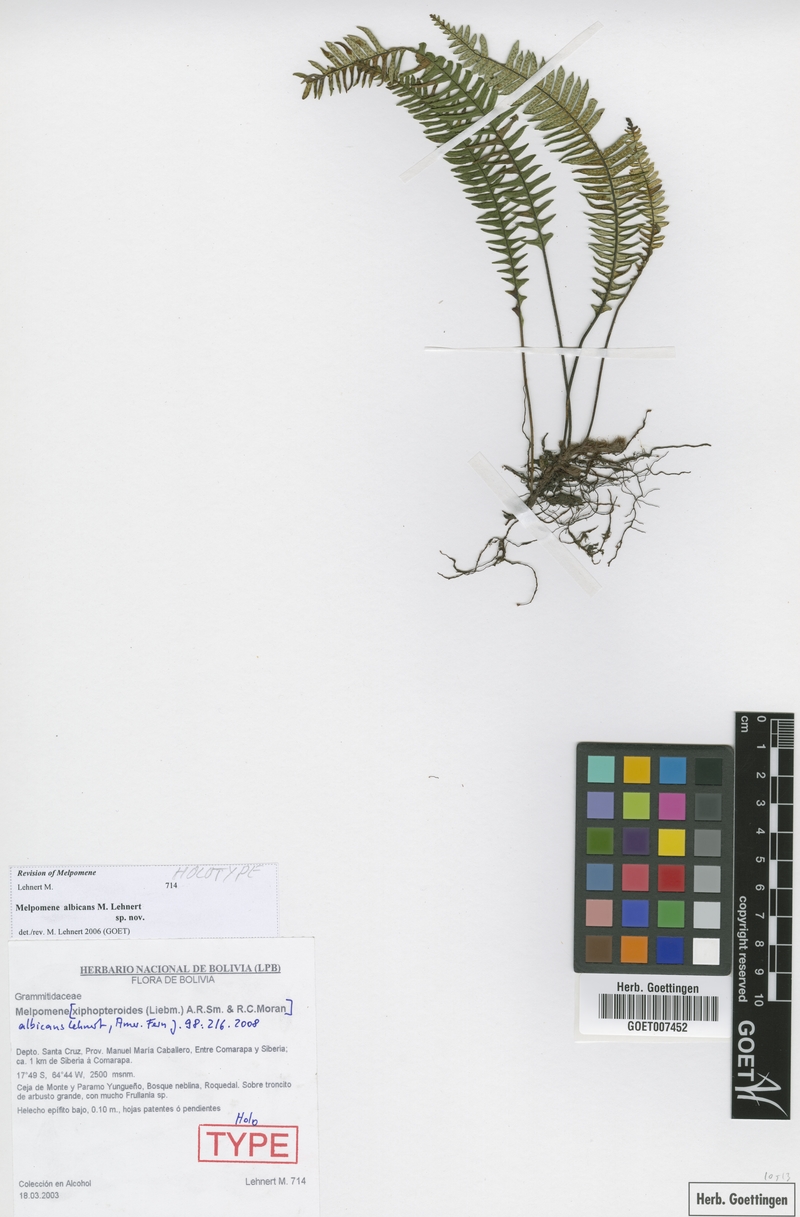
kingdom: Plantae
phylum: Tracheophyta
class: Polypodiopsida
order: Polypodiales
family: Polypodiaceae
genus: Melpomene
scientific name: Melpomene albicans
